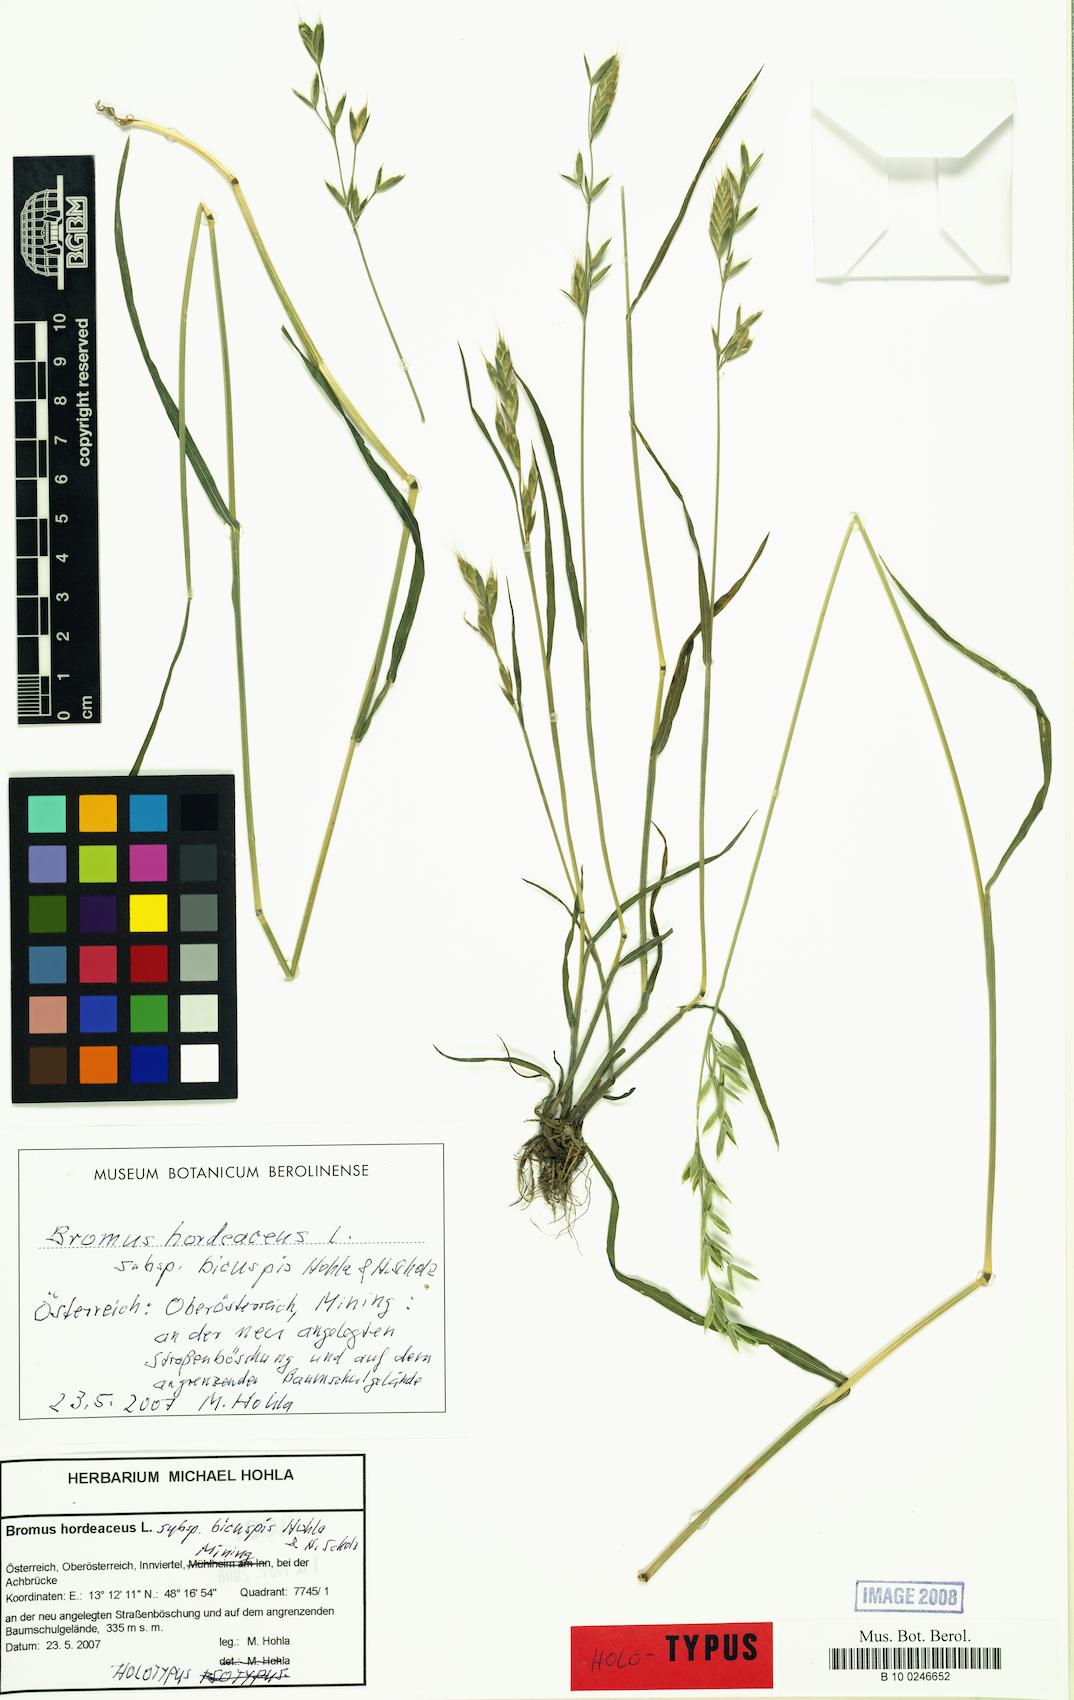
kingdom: Plantae
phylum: Tracheophyta
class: Liliopsida
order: Poales
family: Poaceae
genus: Bromus
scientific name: Bromus hordeaceus
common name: Soft brome
